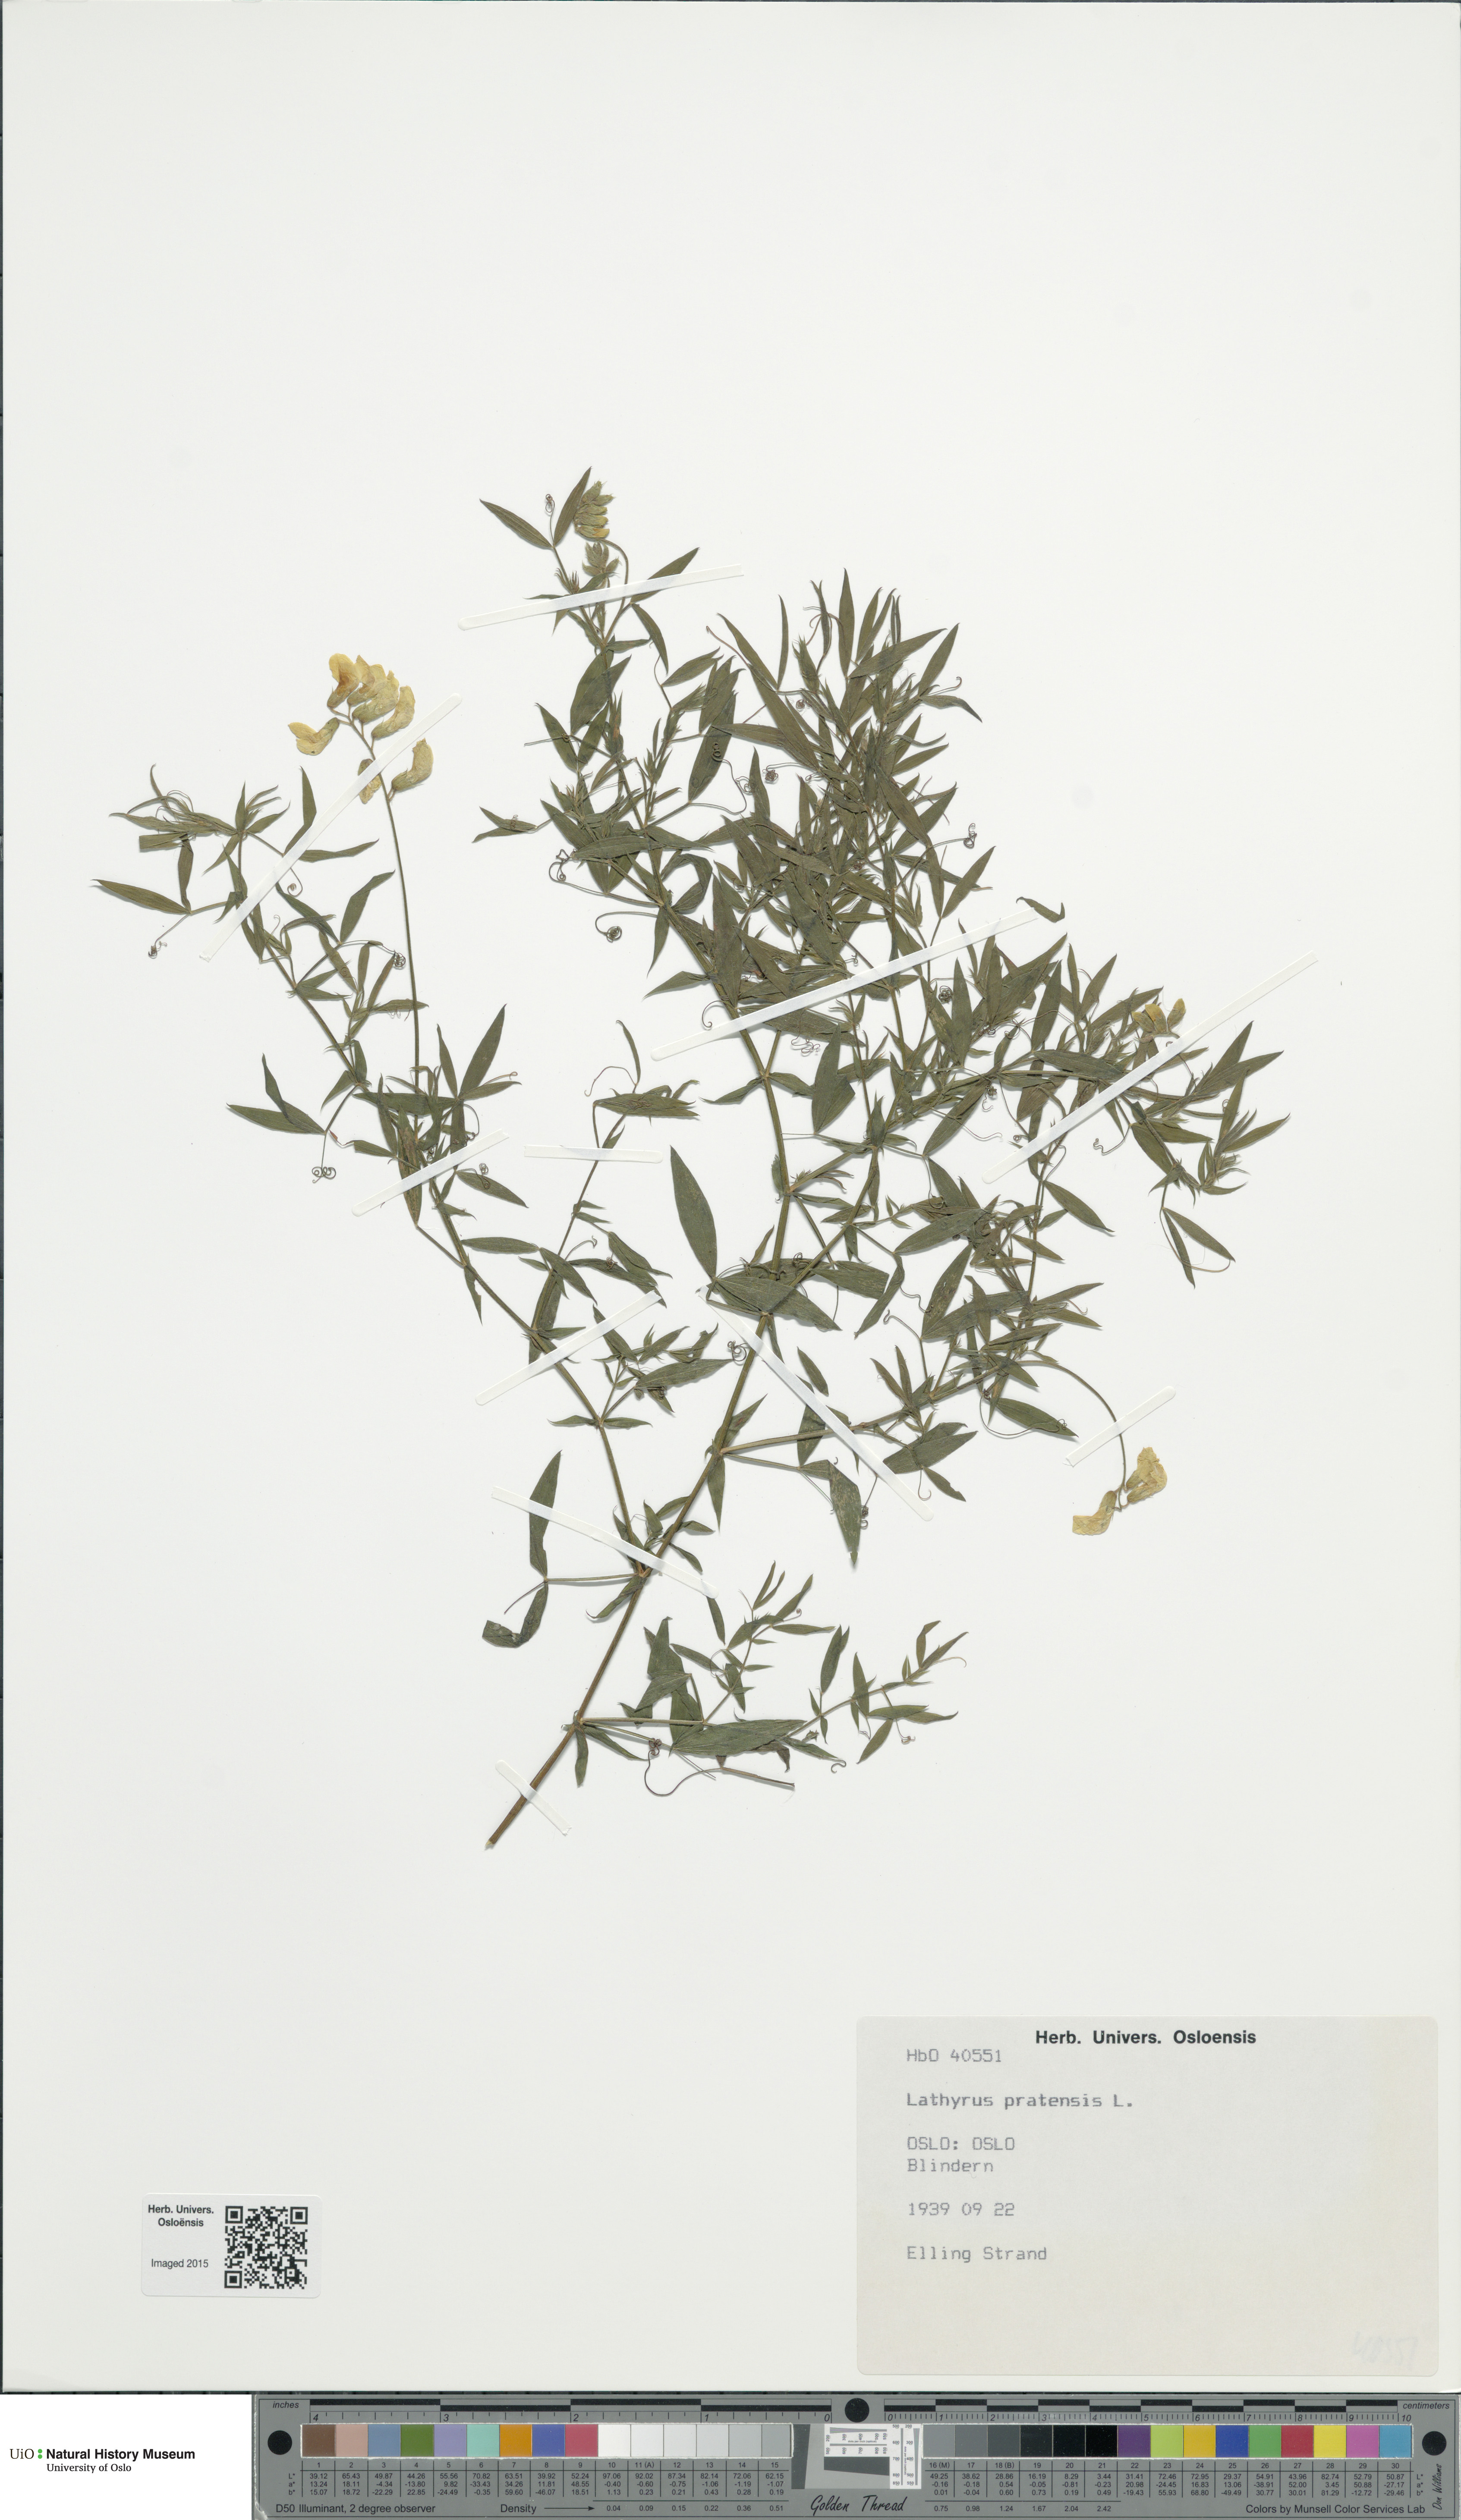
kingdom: Plantae
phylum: Tracheophyta
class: Magnoliopsida
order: Fabales
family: Fabaceae
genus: Lathyrus
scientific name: Lathyrus pratensis
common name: Meadow vetchling
